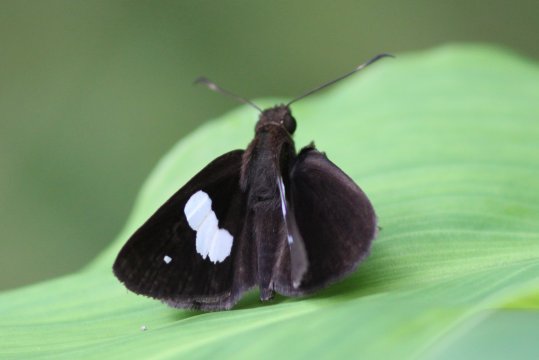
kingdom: Animalia
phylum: Arthropoda
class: Insecta
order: Lepidoptera
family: Hesperiidae
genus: Notocrypta
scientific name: Notocrypta paralysos
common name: common banded demon
